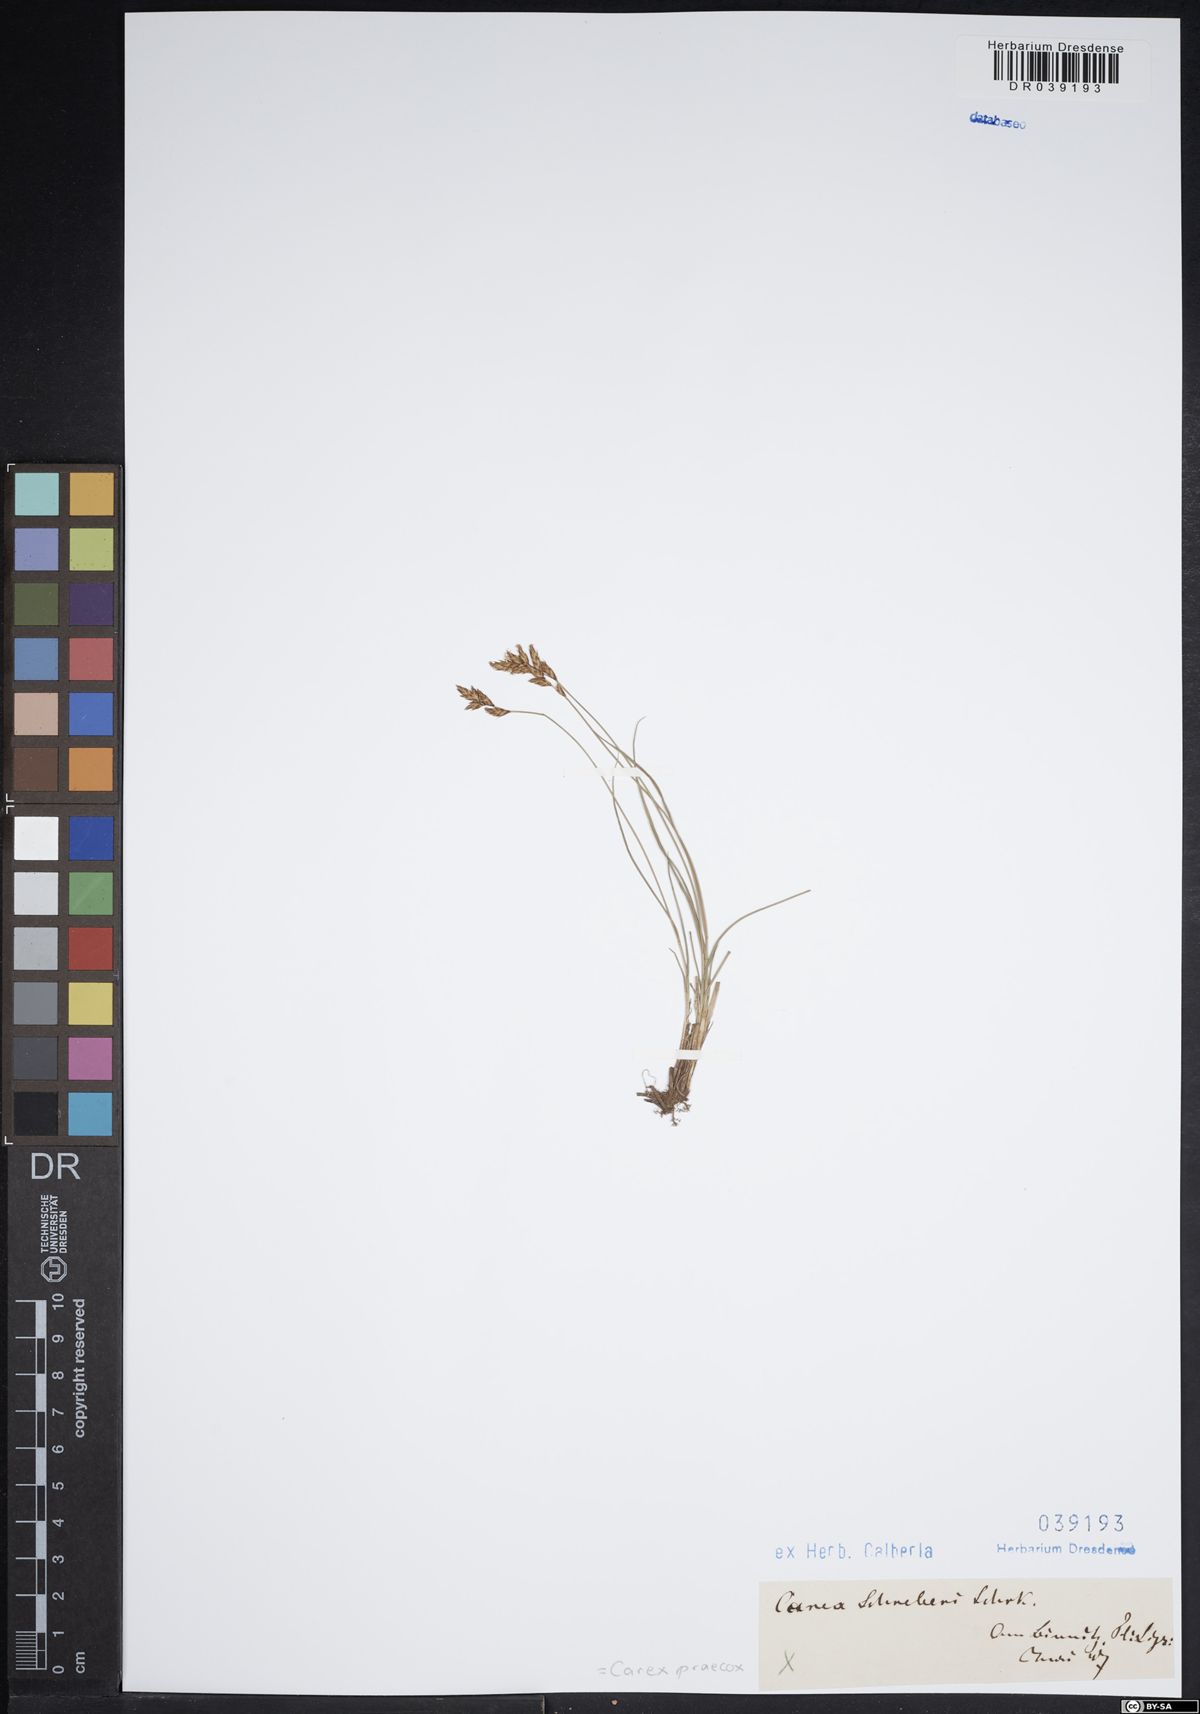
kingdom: Plantae
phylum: Tracheophyta
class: Liliopsida
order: Poales
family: Cyperaceae
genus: Carex
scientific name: Carex praecox
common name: Early sedge
